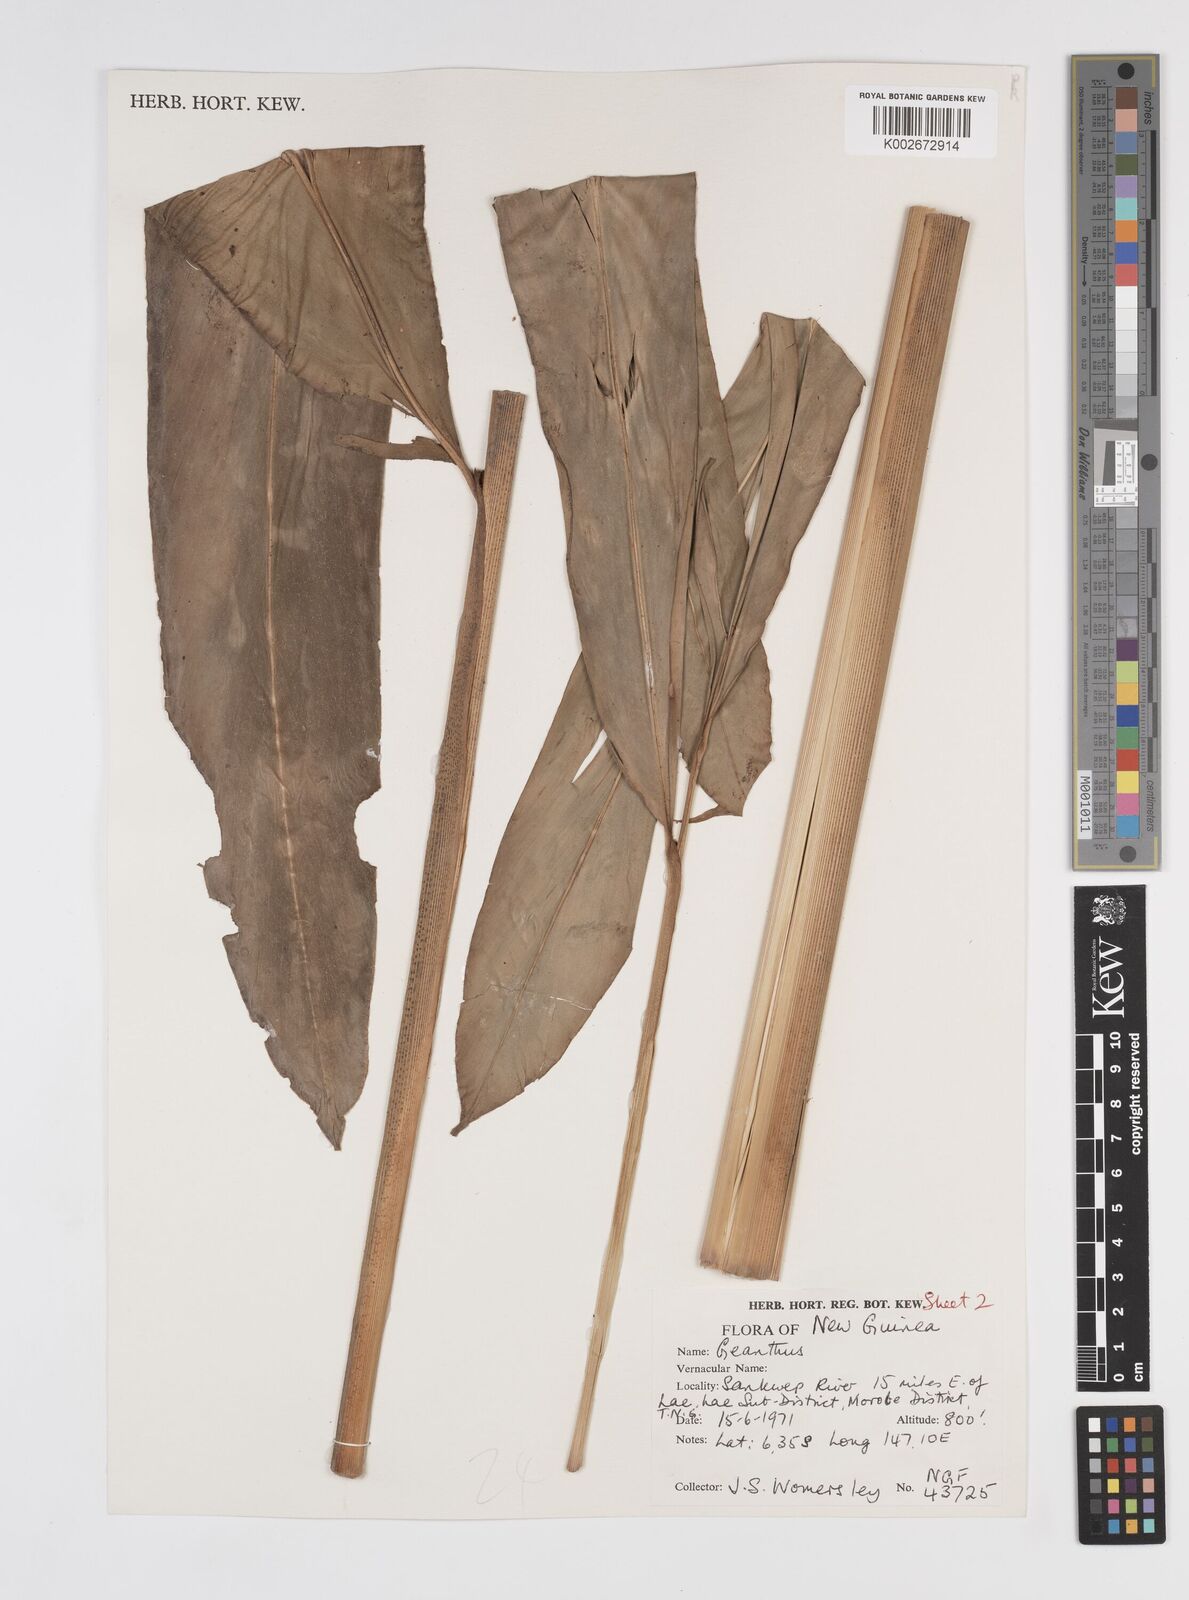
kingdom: Plantae
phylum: Tracheophyta
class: Liliopsida
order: Zingiberales
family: Zingiberaceae
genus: Etlingera
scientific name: Etlingera
